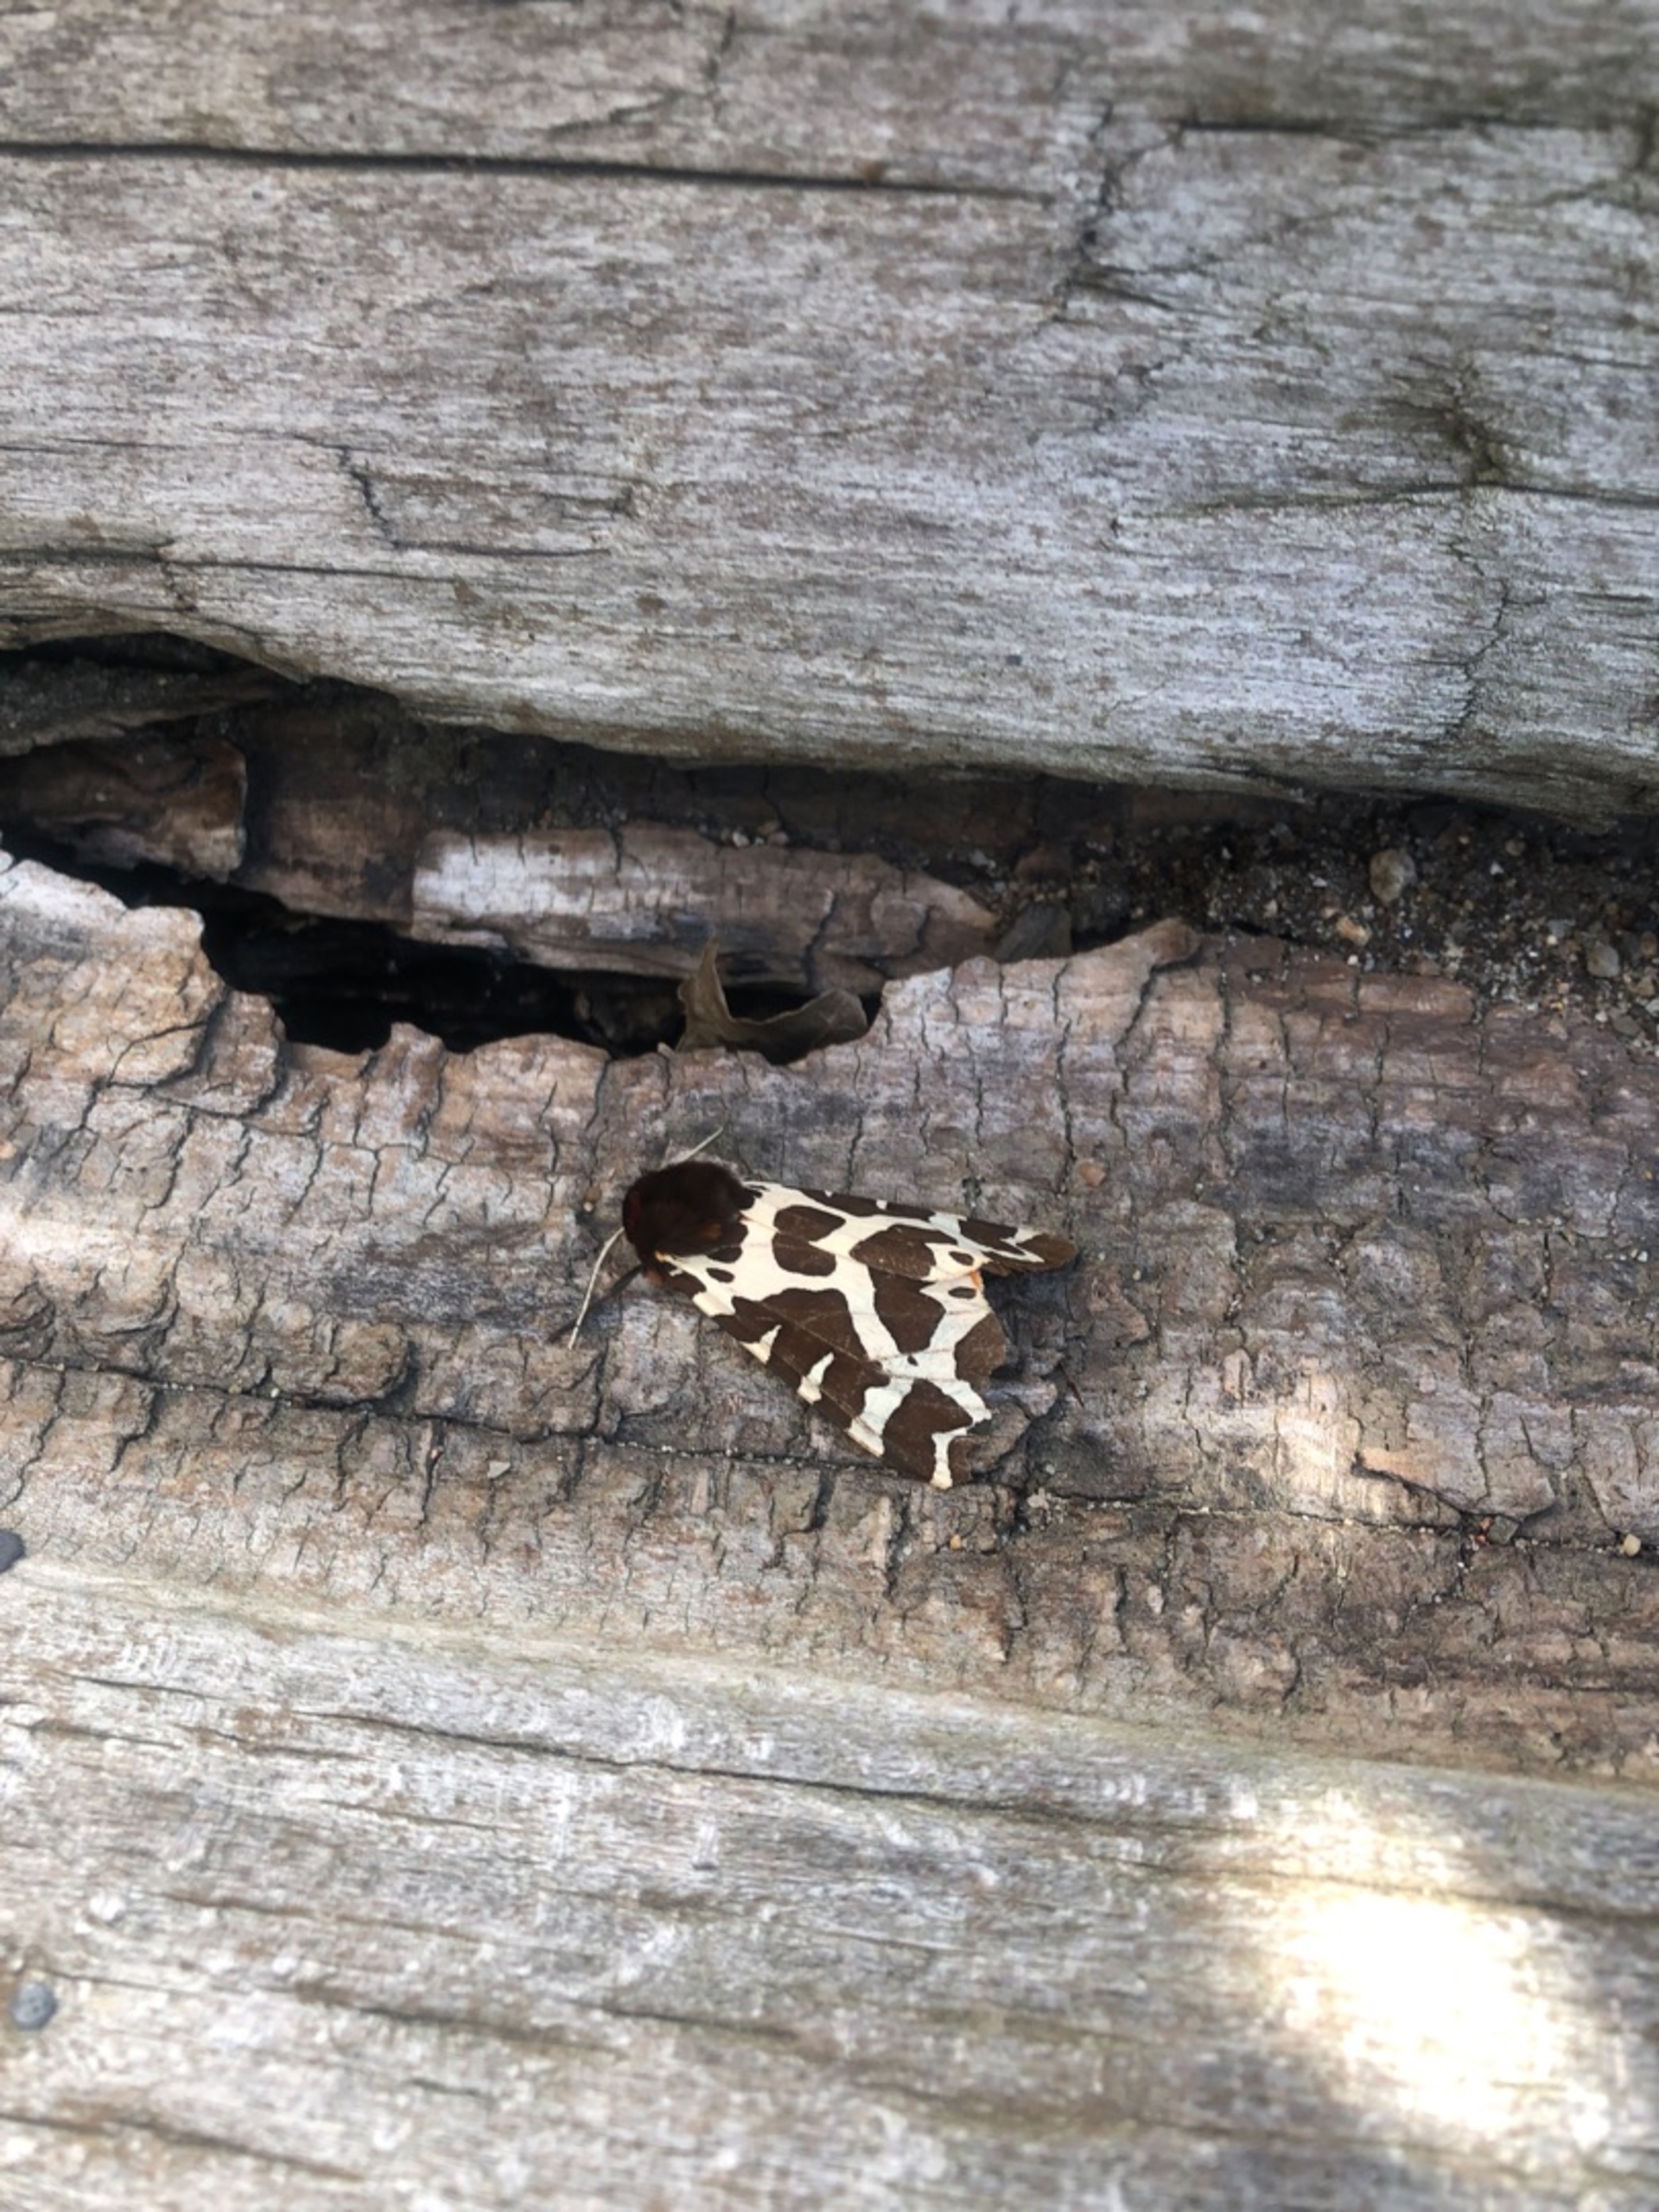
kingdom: Animalia
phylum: Arthropoda
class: Insecta
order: Lepidoptera
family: Erebidae
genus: Arctia
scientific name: Arctia caja
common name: Brun bjørn
